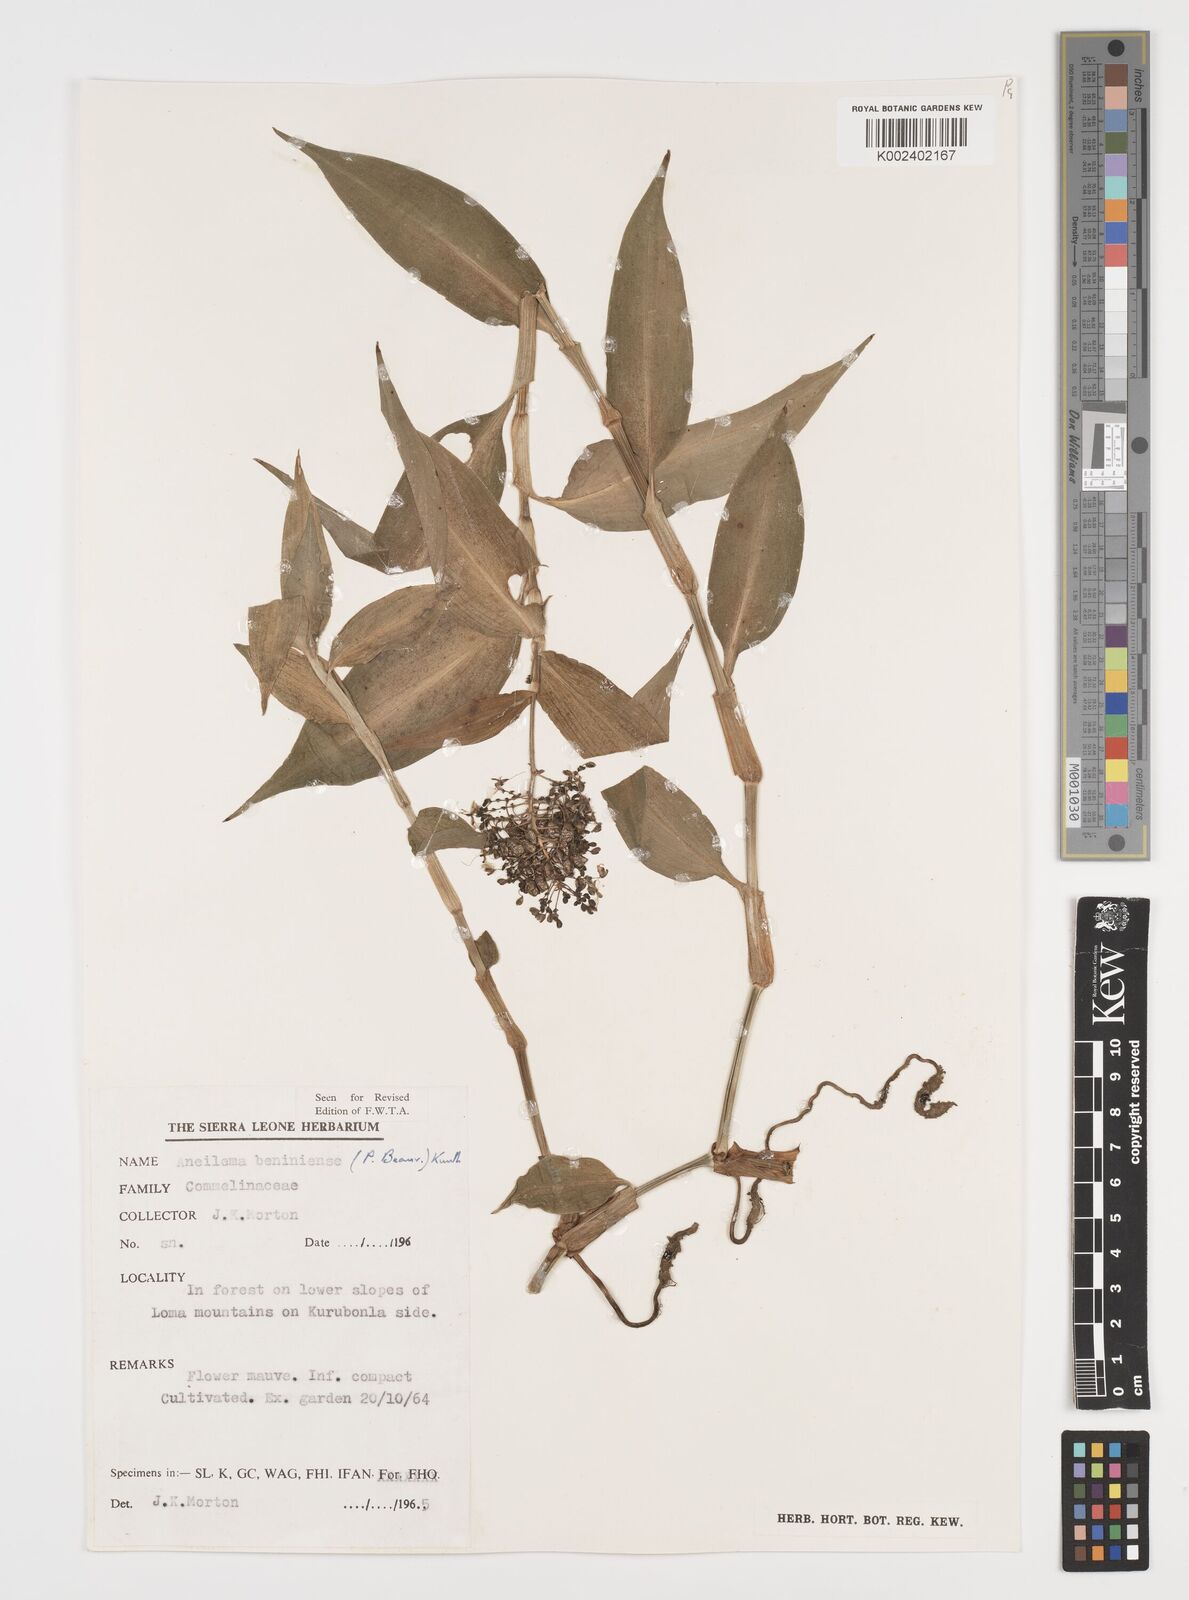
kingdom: Plantae
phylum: Tracheophyta
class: Liliopsida
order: Commelinales
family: Commelinaceae
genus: Aneilema
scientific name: Aneilema beniniense
